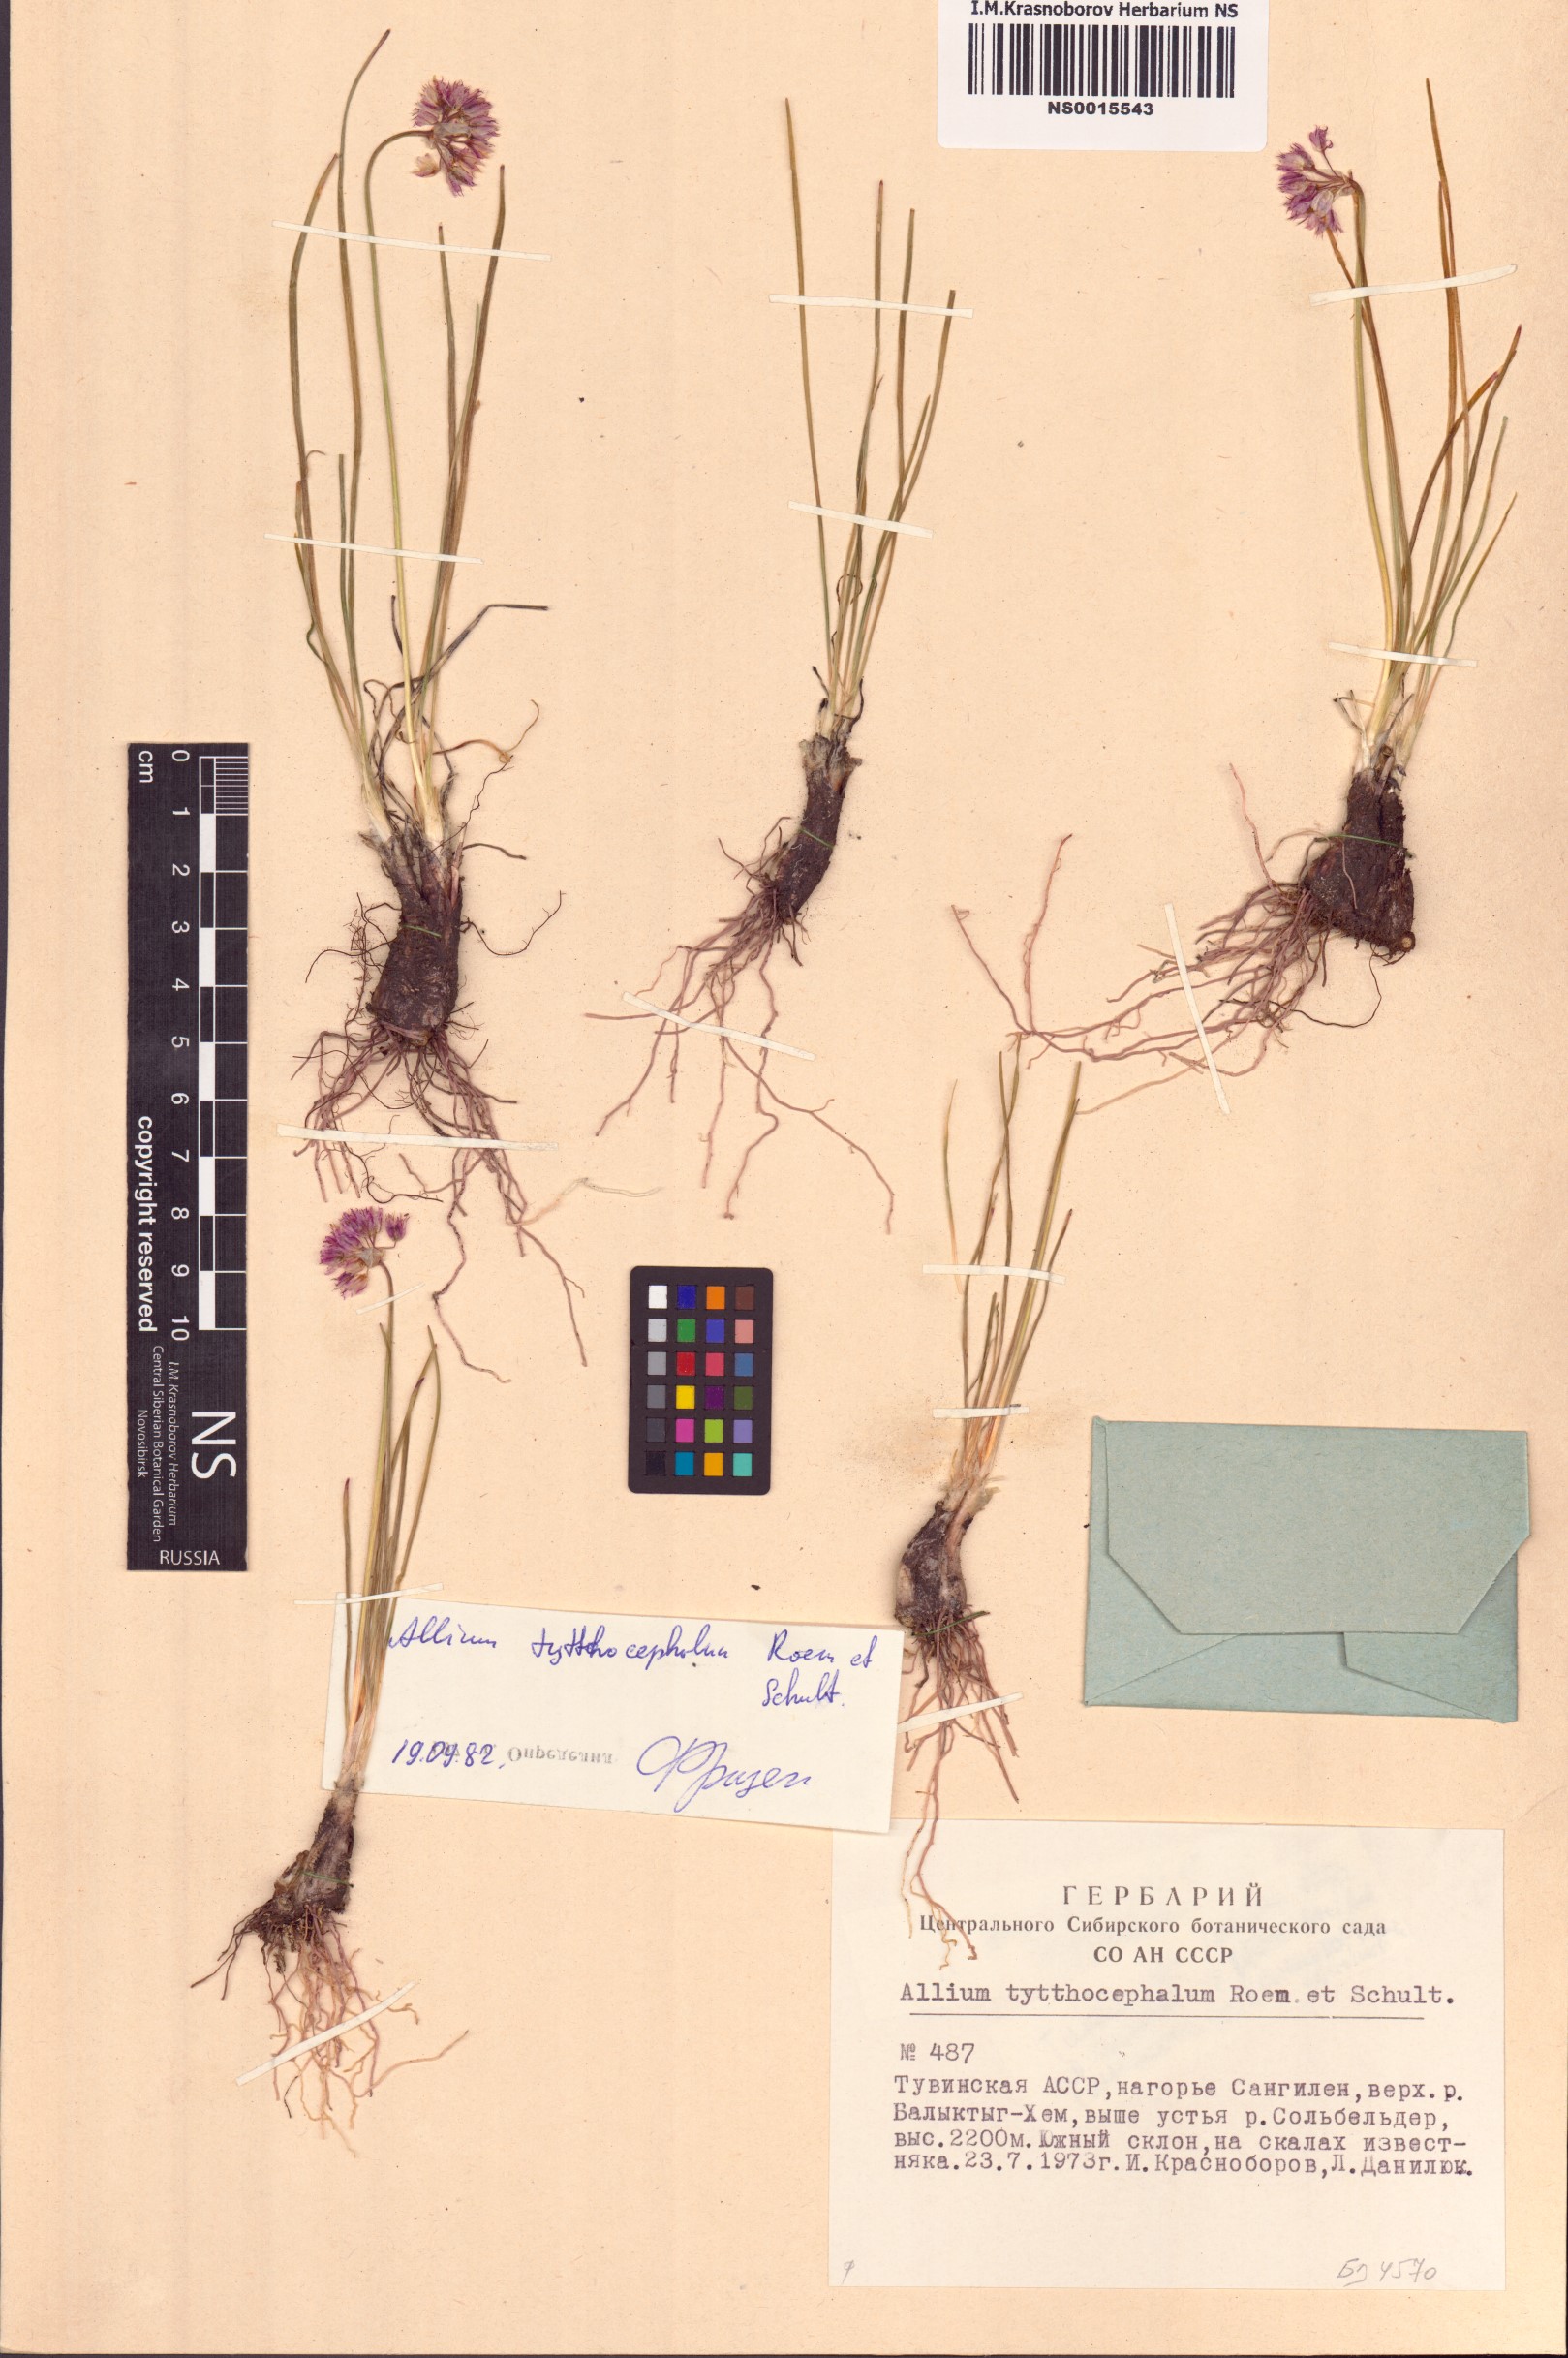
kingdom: Plantae
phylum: Tracheophyta
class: Liliopsida
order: Asparagales
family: Amaryllidaceae
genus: Allium
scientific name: Allium tytthocephalum
